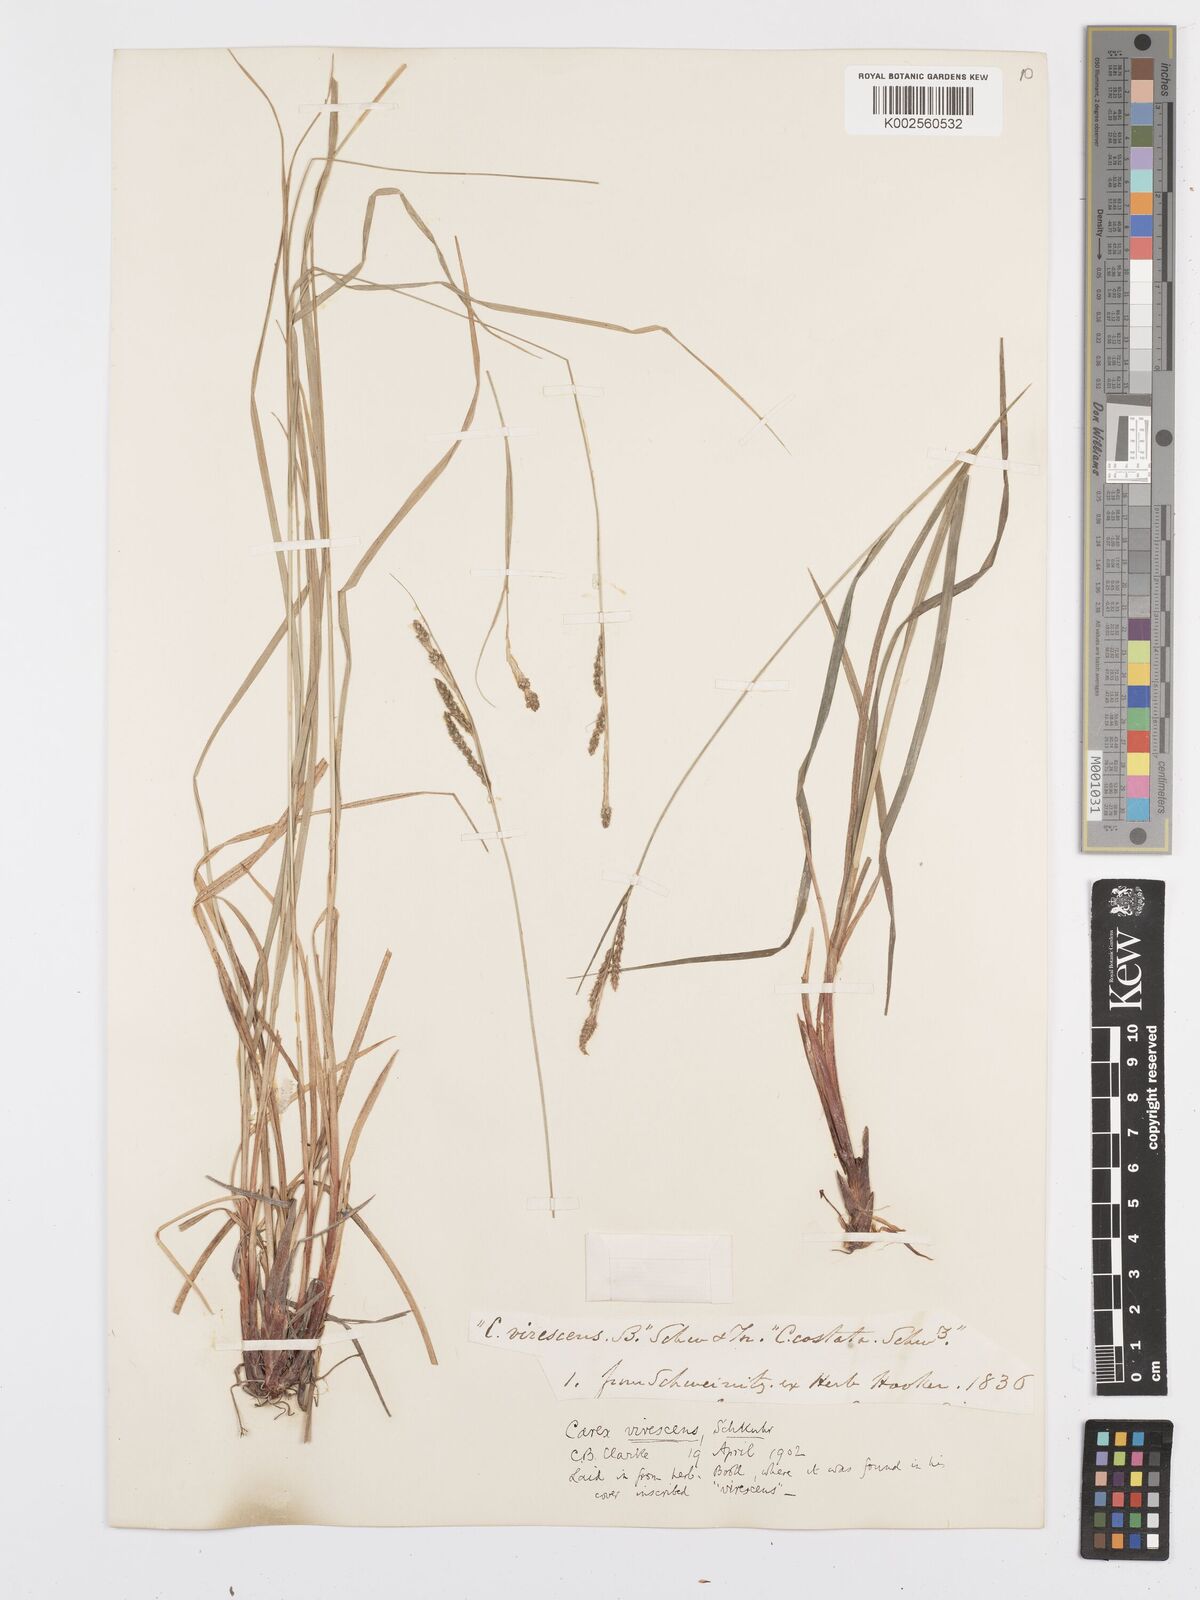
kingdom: Plantae
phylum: Tracheophyta
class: Liliopsida
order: Poales
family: Cyperaceae
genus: Carex
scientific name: Carex virescens
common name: Ribbed sedge
